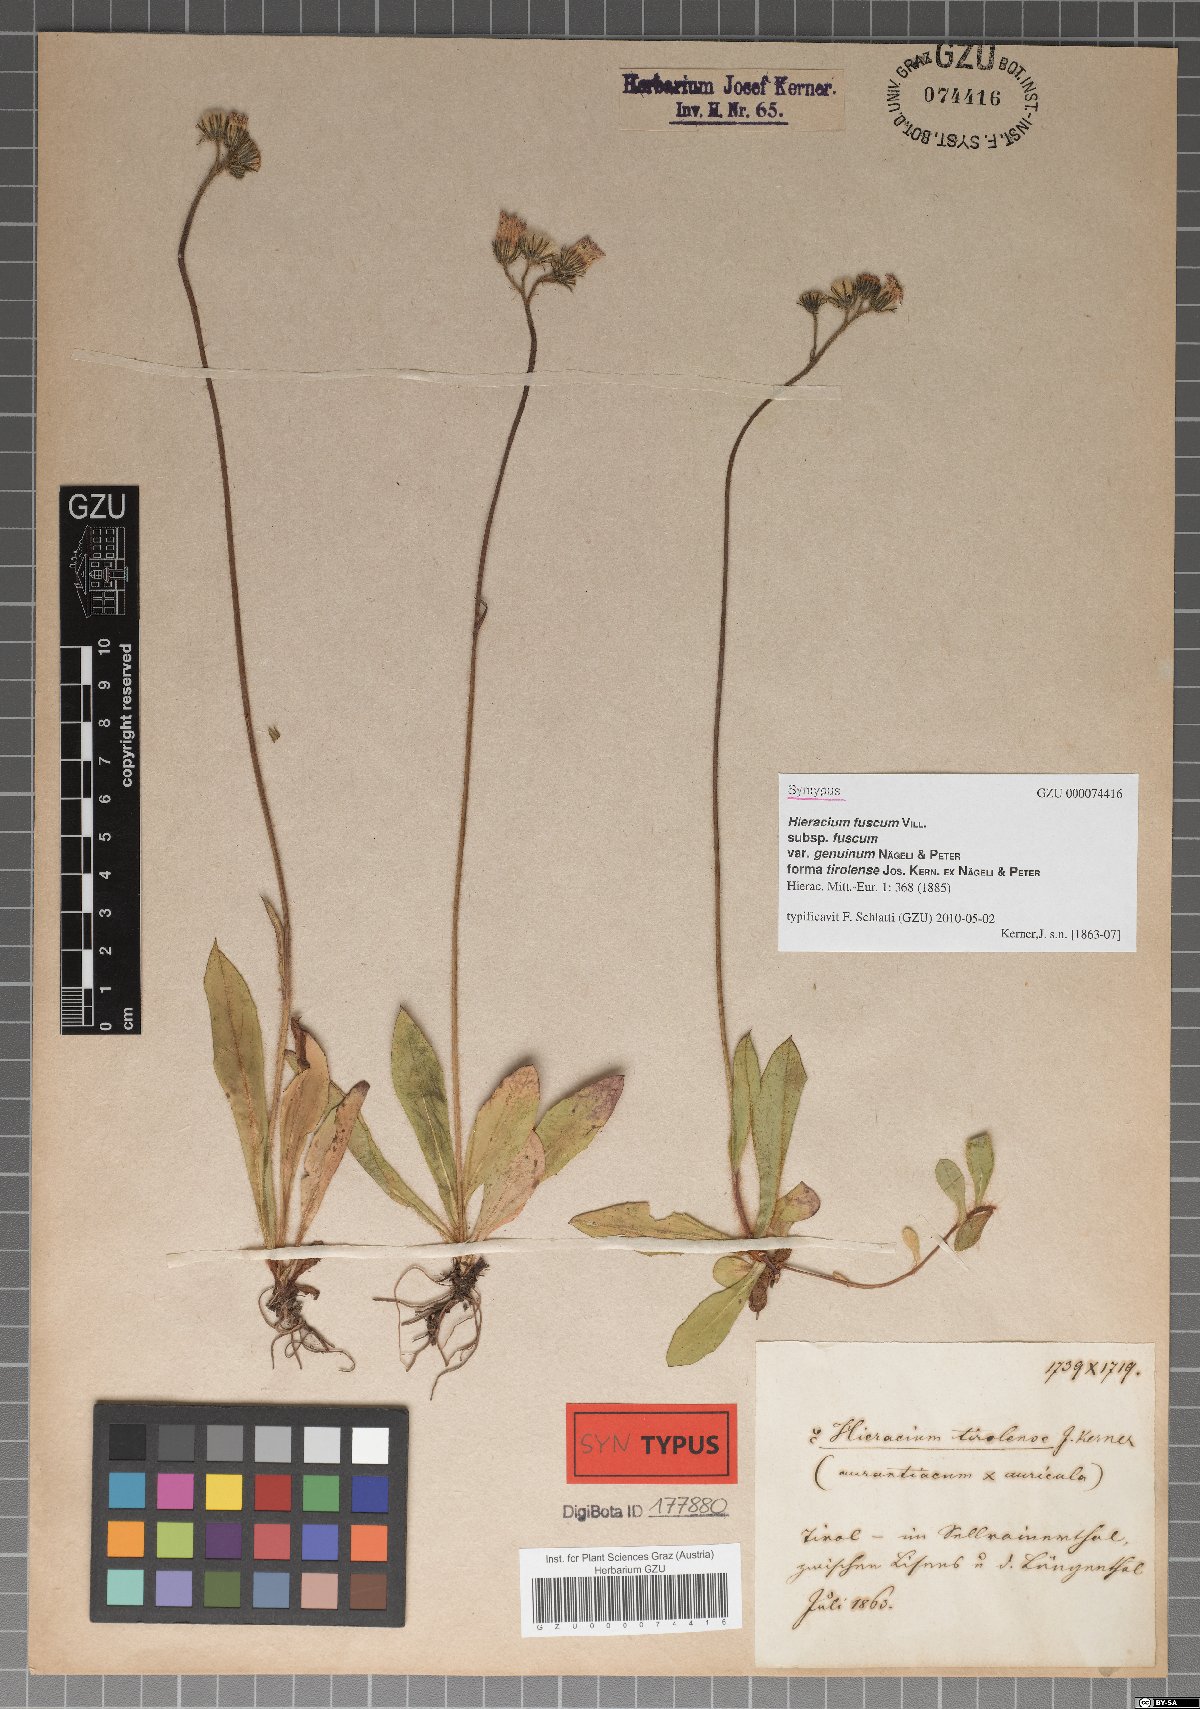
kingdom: Plantae
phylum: Tracheophyta
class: Magnoliopsida
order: Asterales
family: Asteraceae
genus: Pilosella
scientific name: Pilosella fusca
